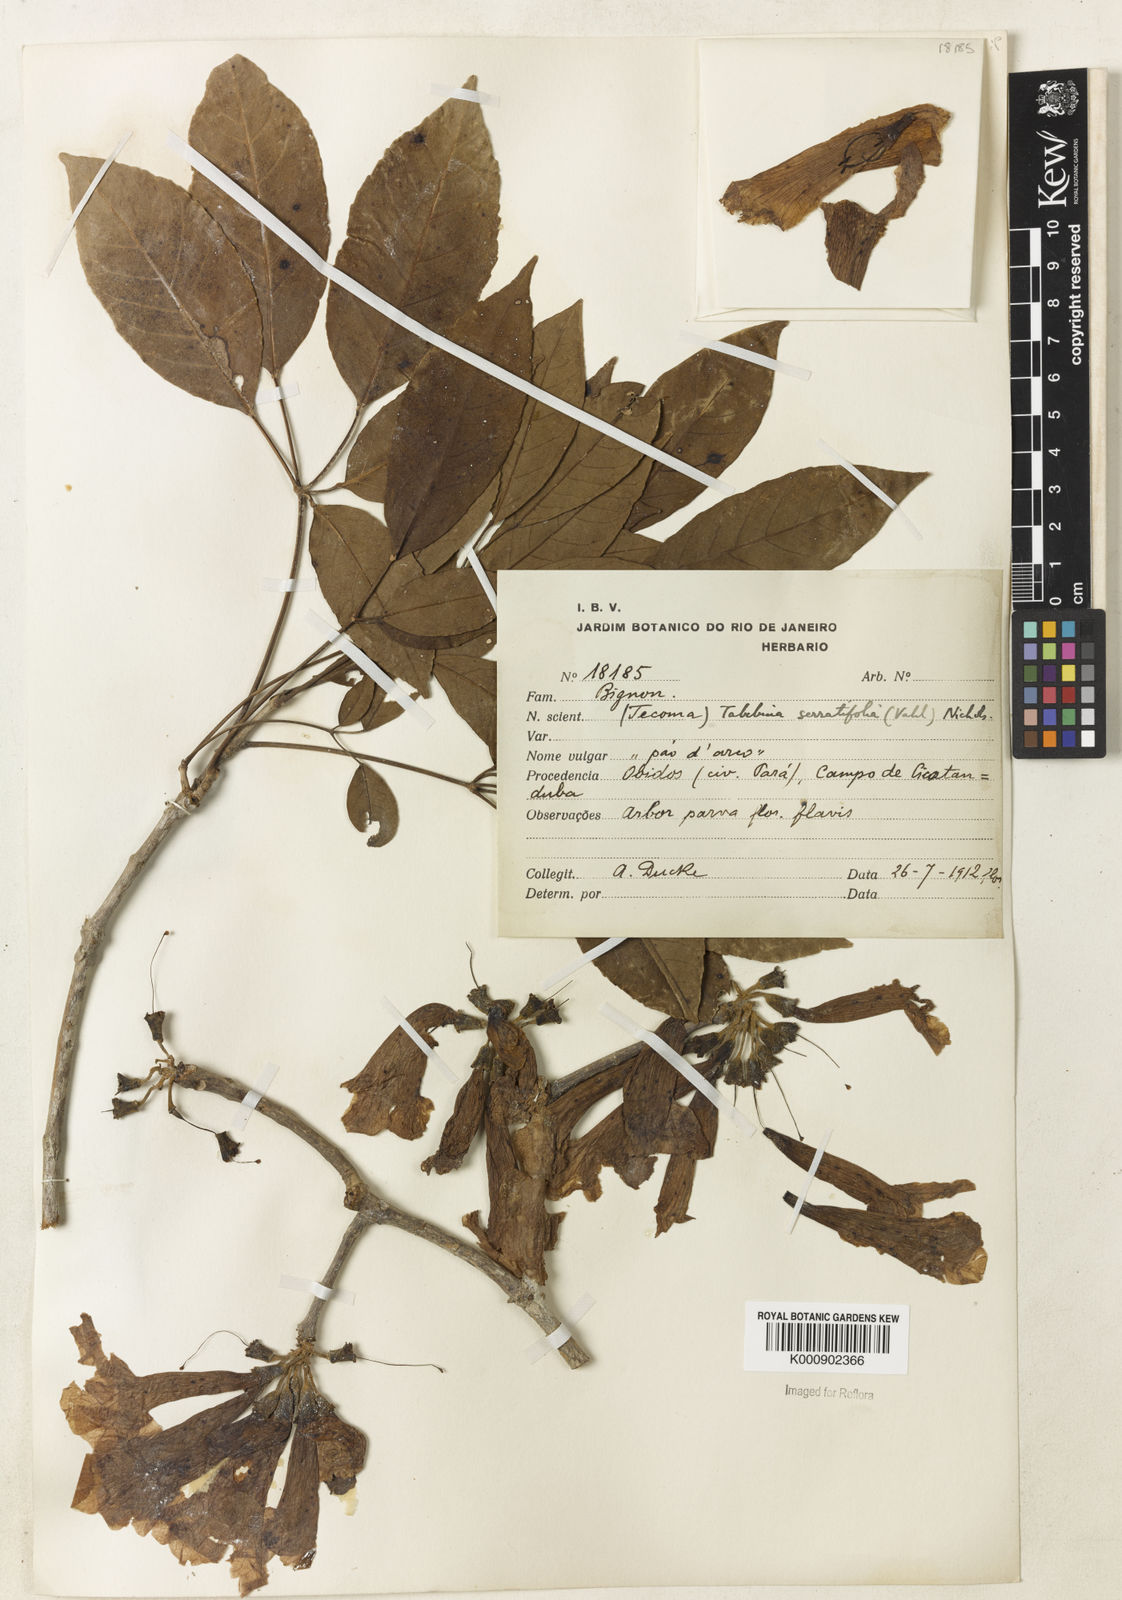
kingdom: Plantae
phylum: Tracheophyta
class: Magnoliopsida
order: Lamiales
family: Bignoniaceae
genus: Handroanthus
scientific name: Handroanthus serratifolius
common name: Yellow ipe
